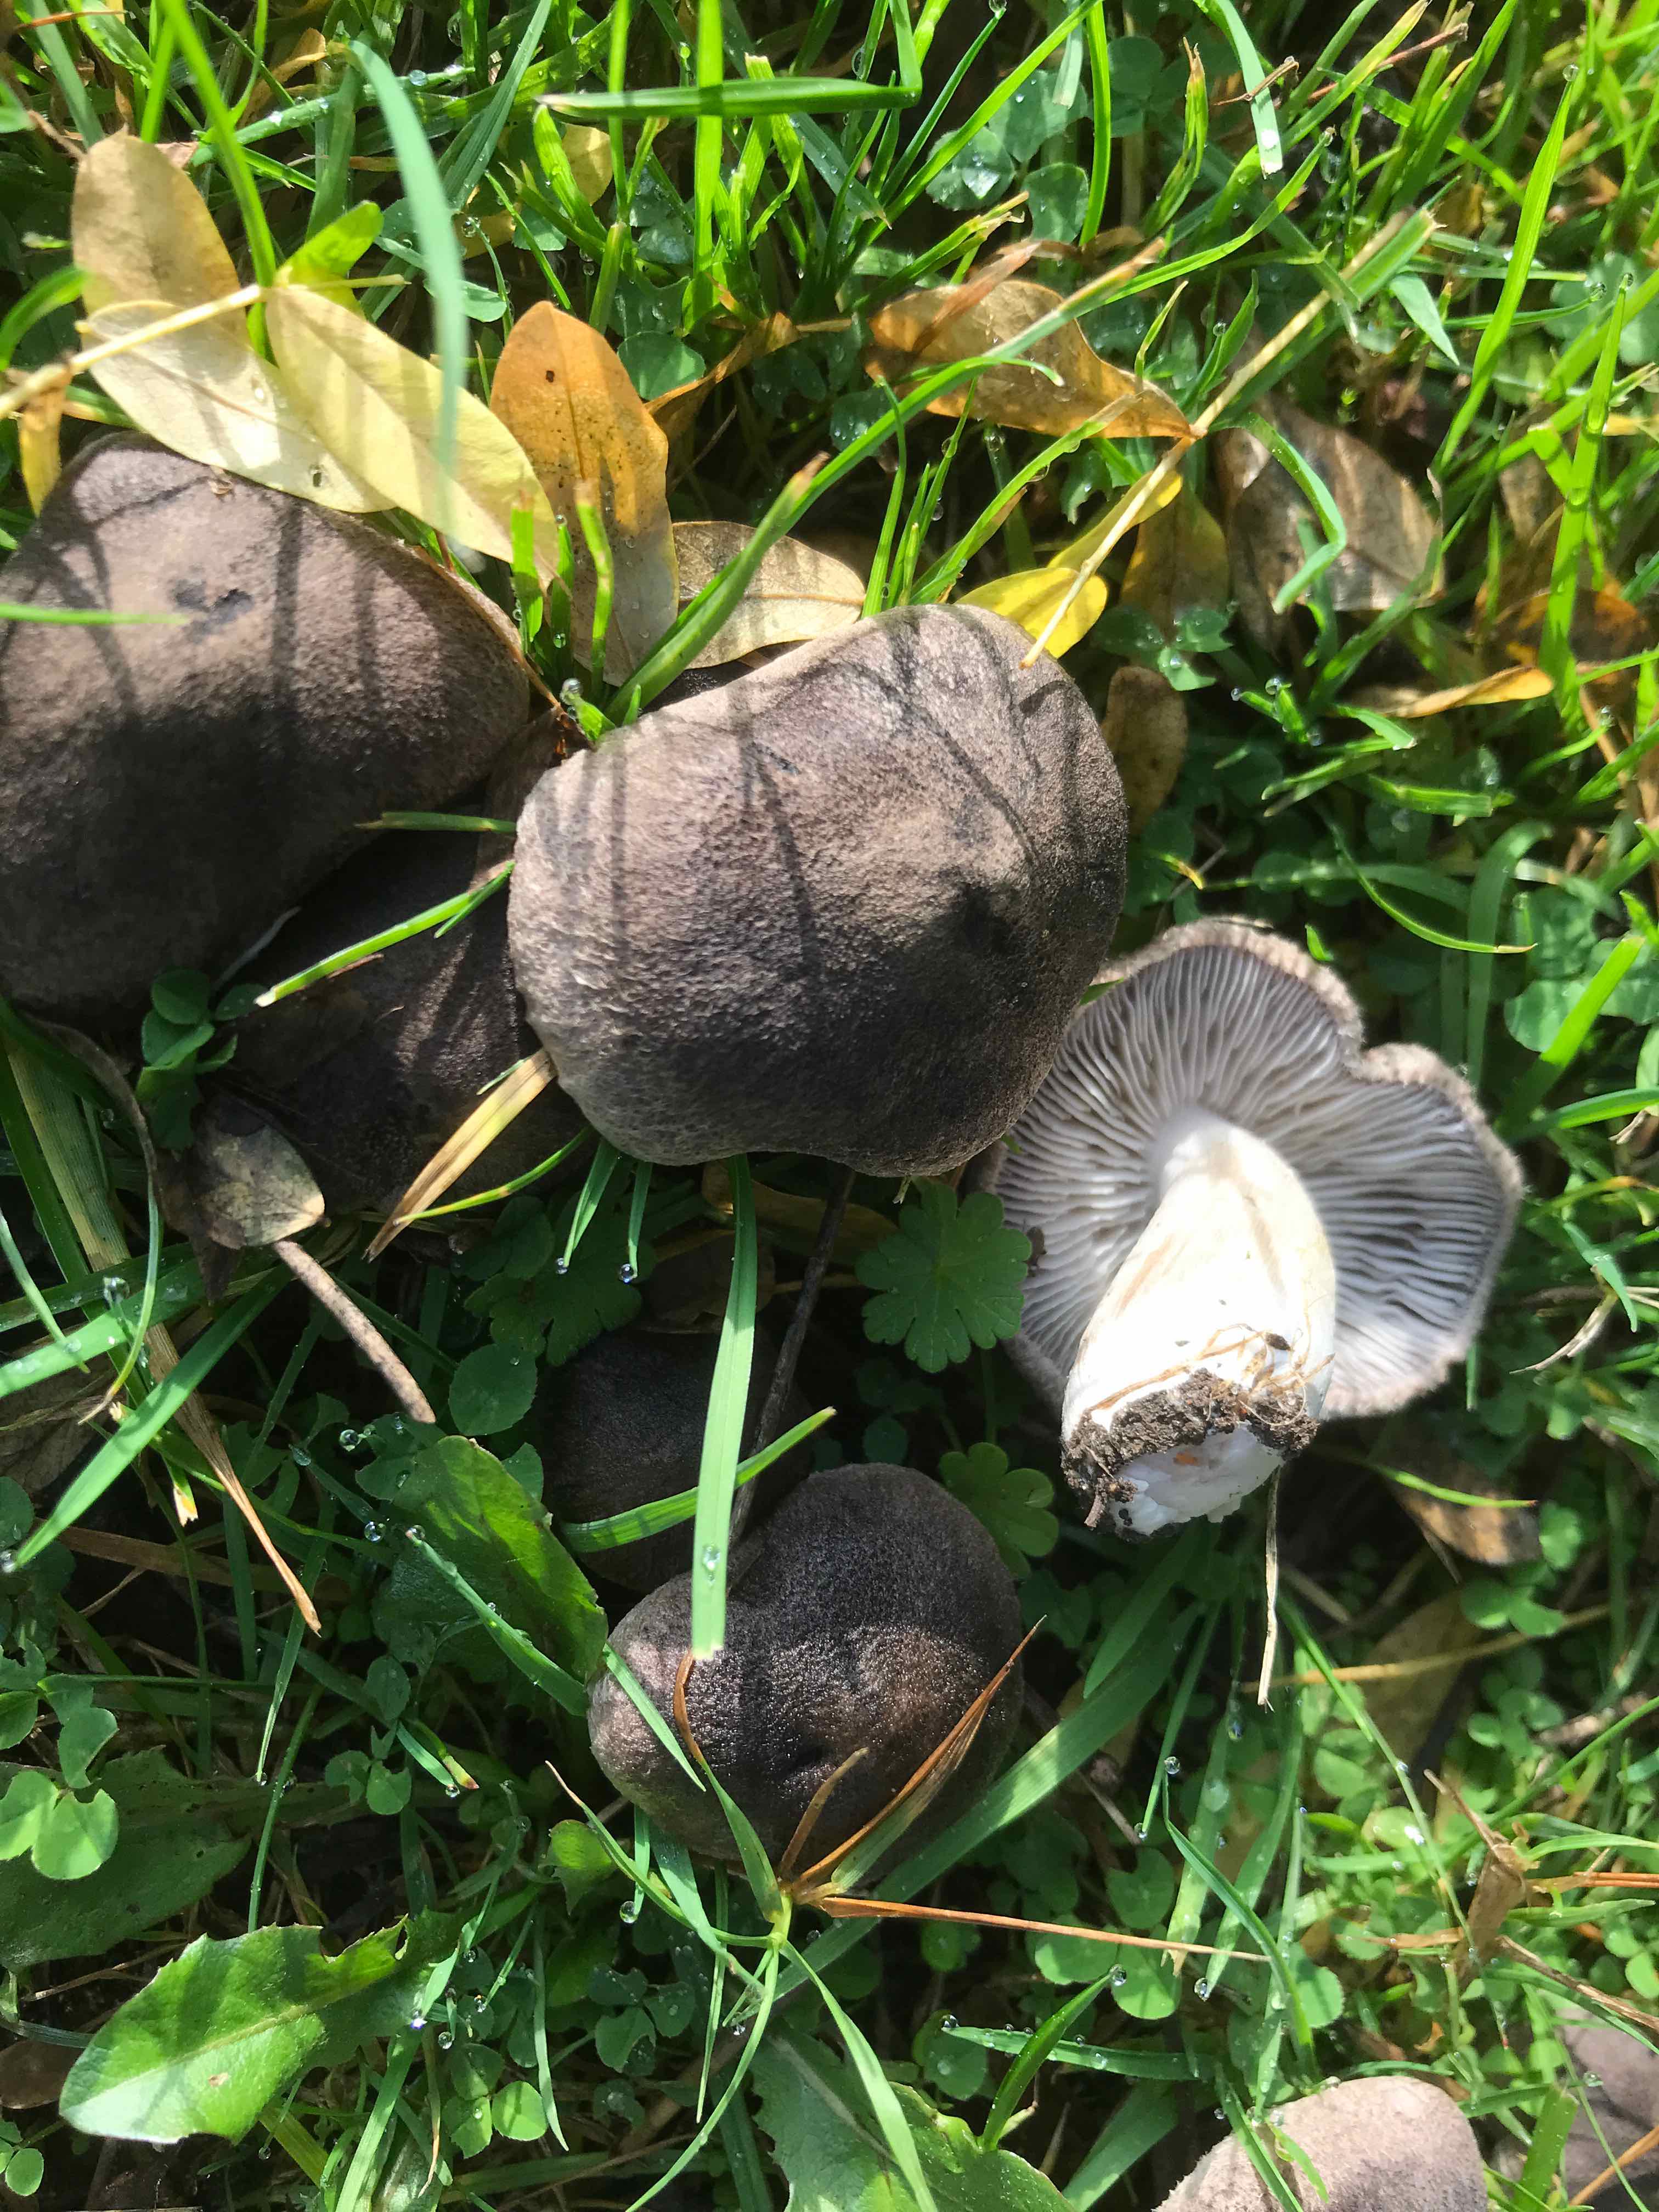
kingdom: Fungi
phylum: Basidiomycota
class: Agaricomycetes
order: Agaricales
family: Tricholomataceae
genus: Tricholoma
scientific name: Tricholoma terreum
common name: jordfarvet ridderhat
